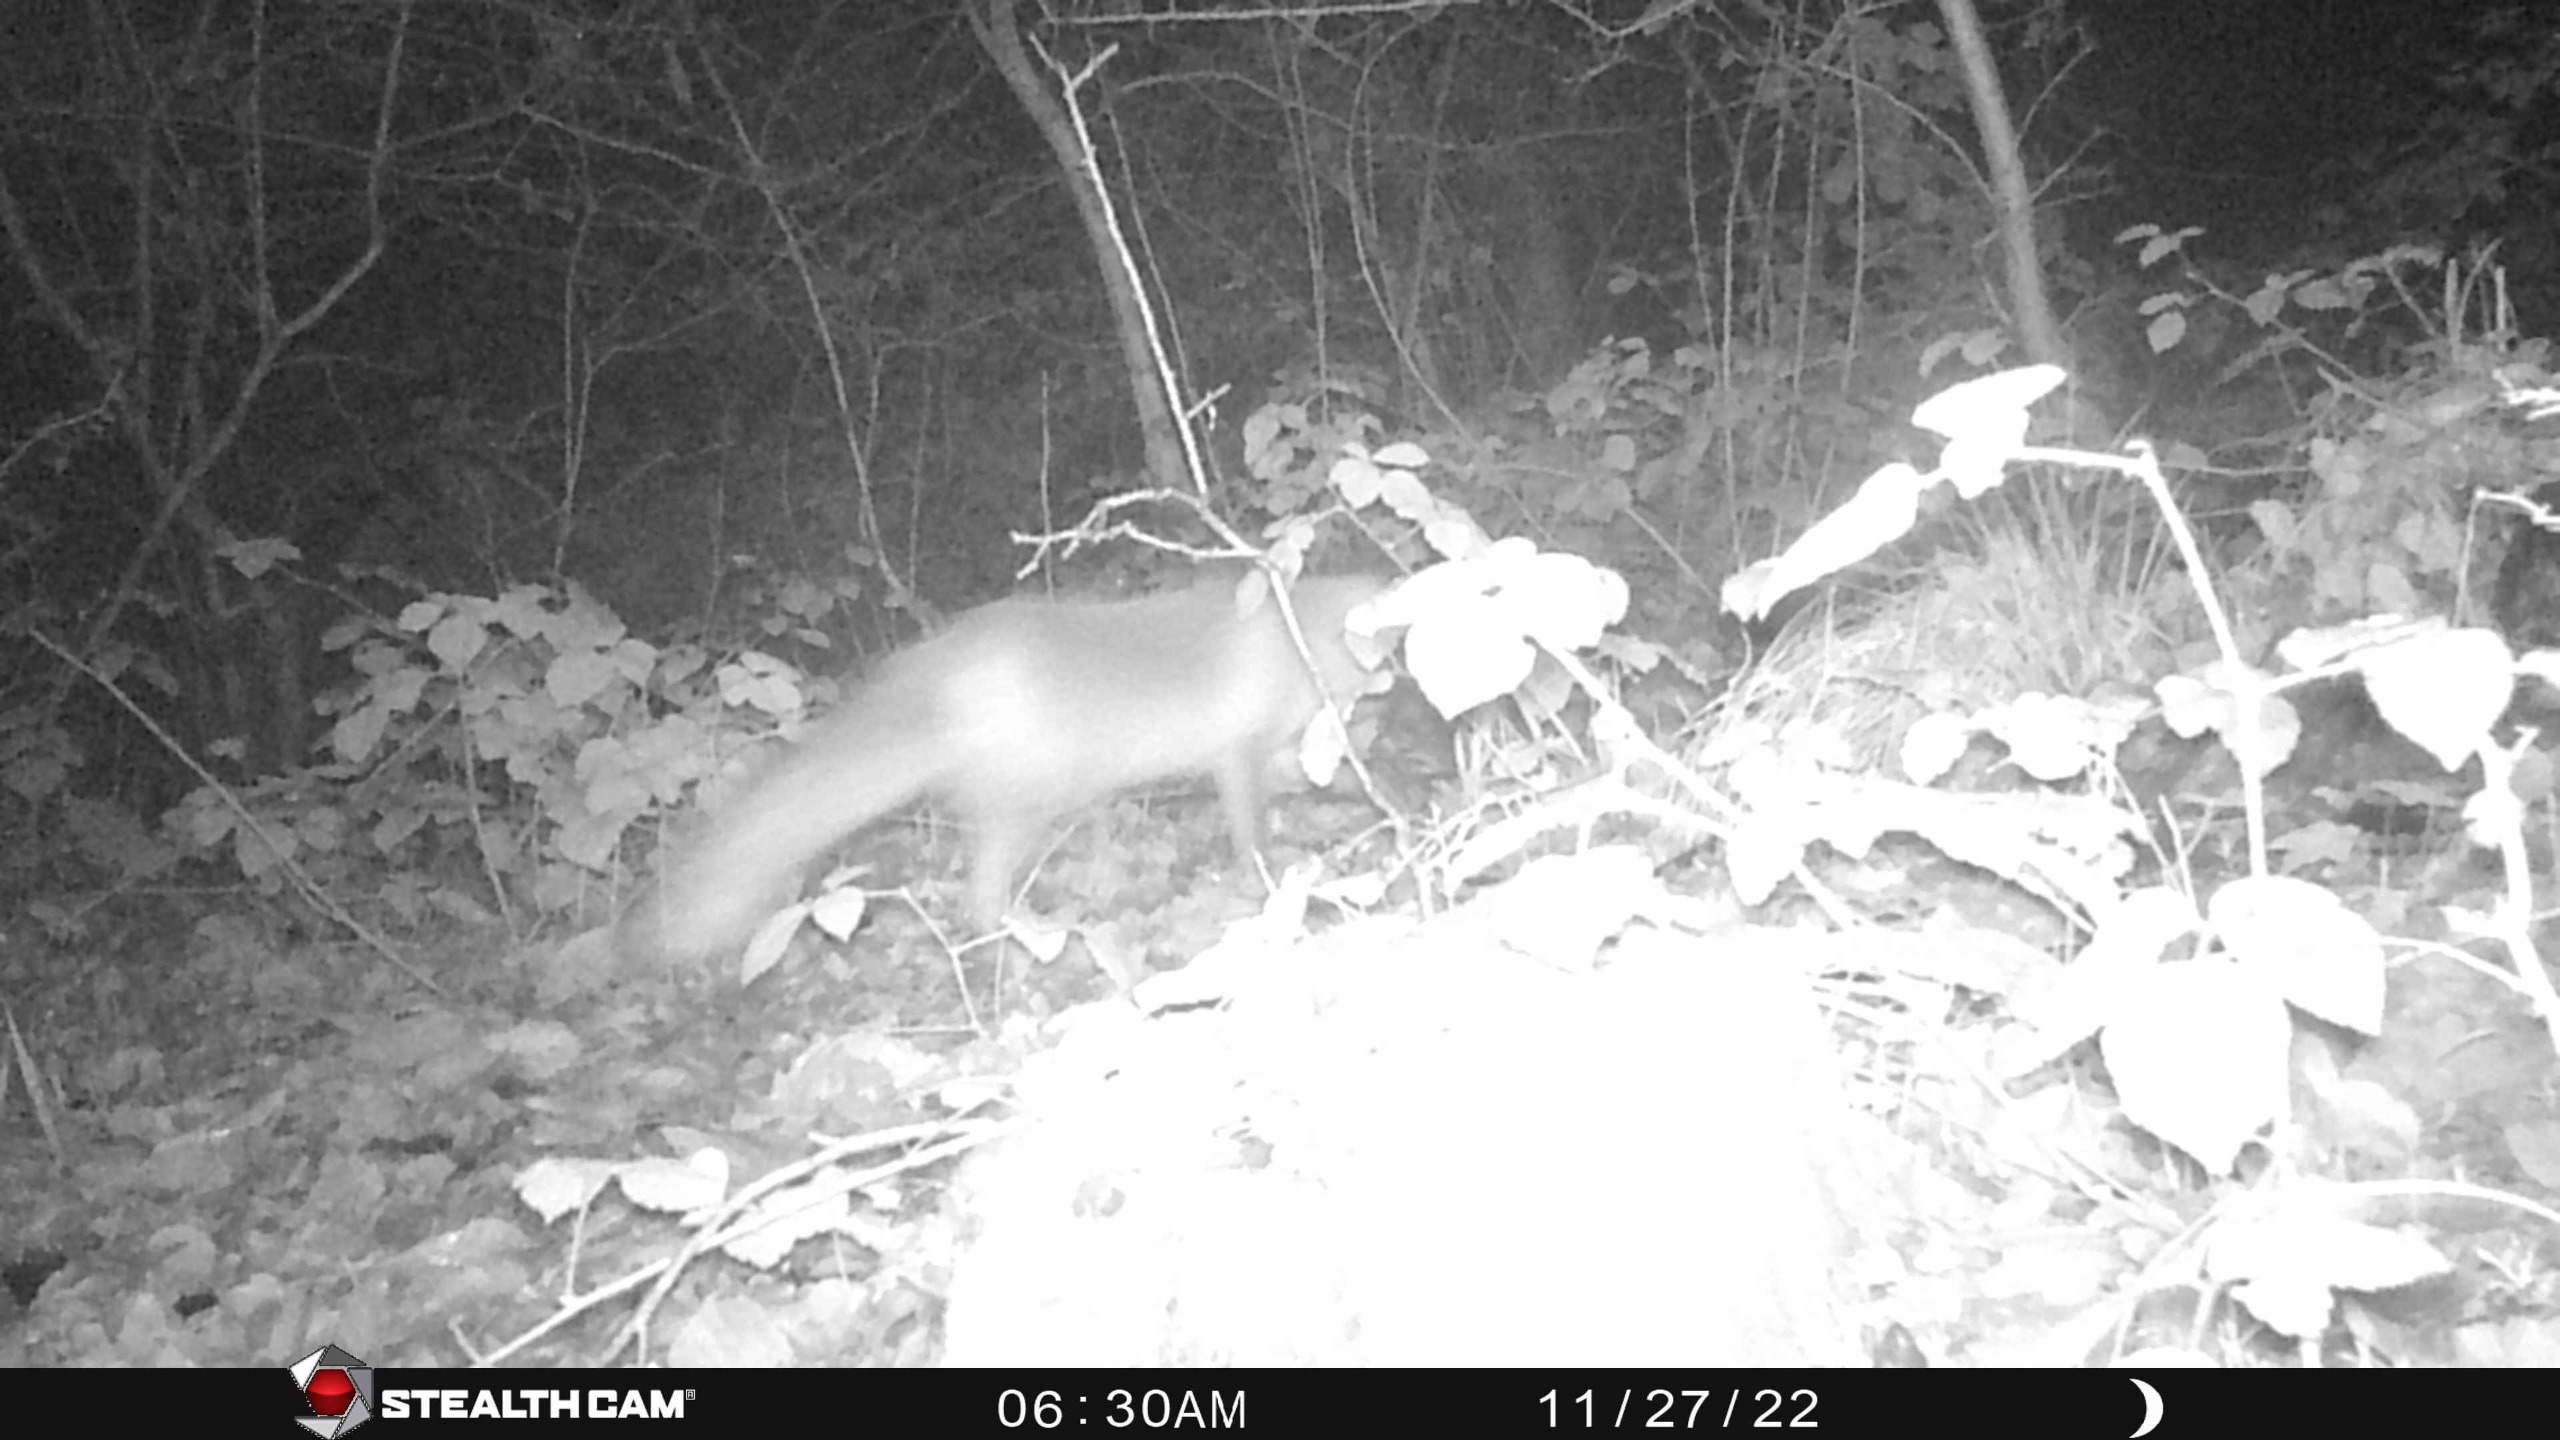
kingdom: Animalia
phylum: Chordata
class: Mammalia
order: Carnivora
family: Canidae
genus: Vulpes
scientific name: Vulpes vulpes
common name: Ræv
